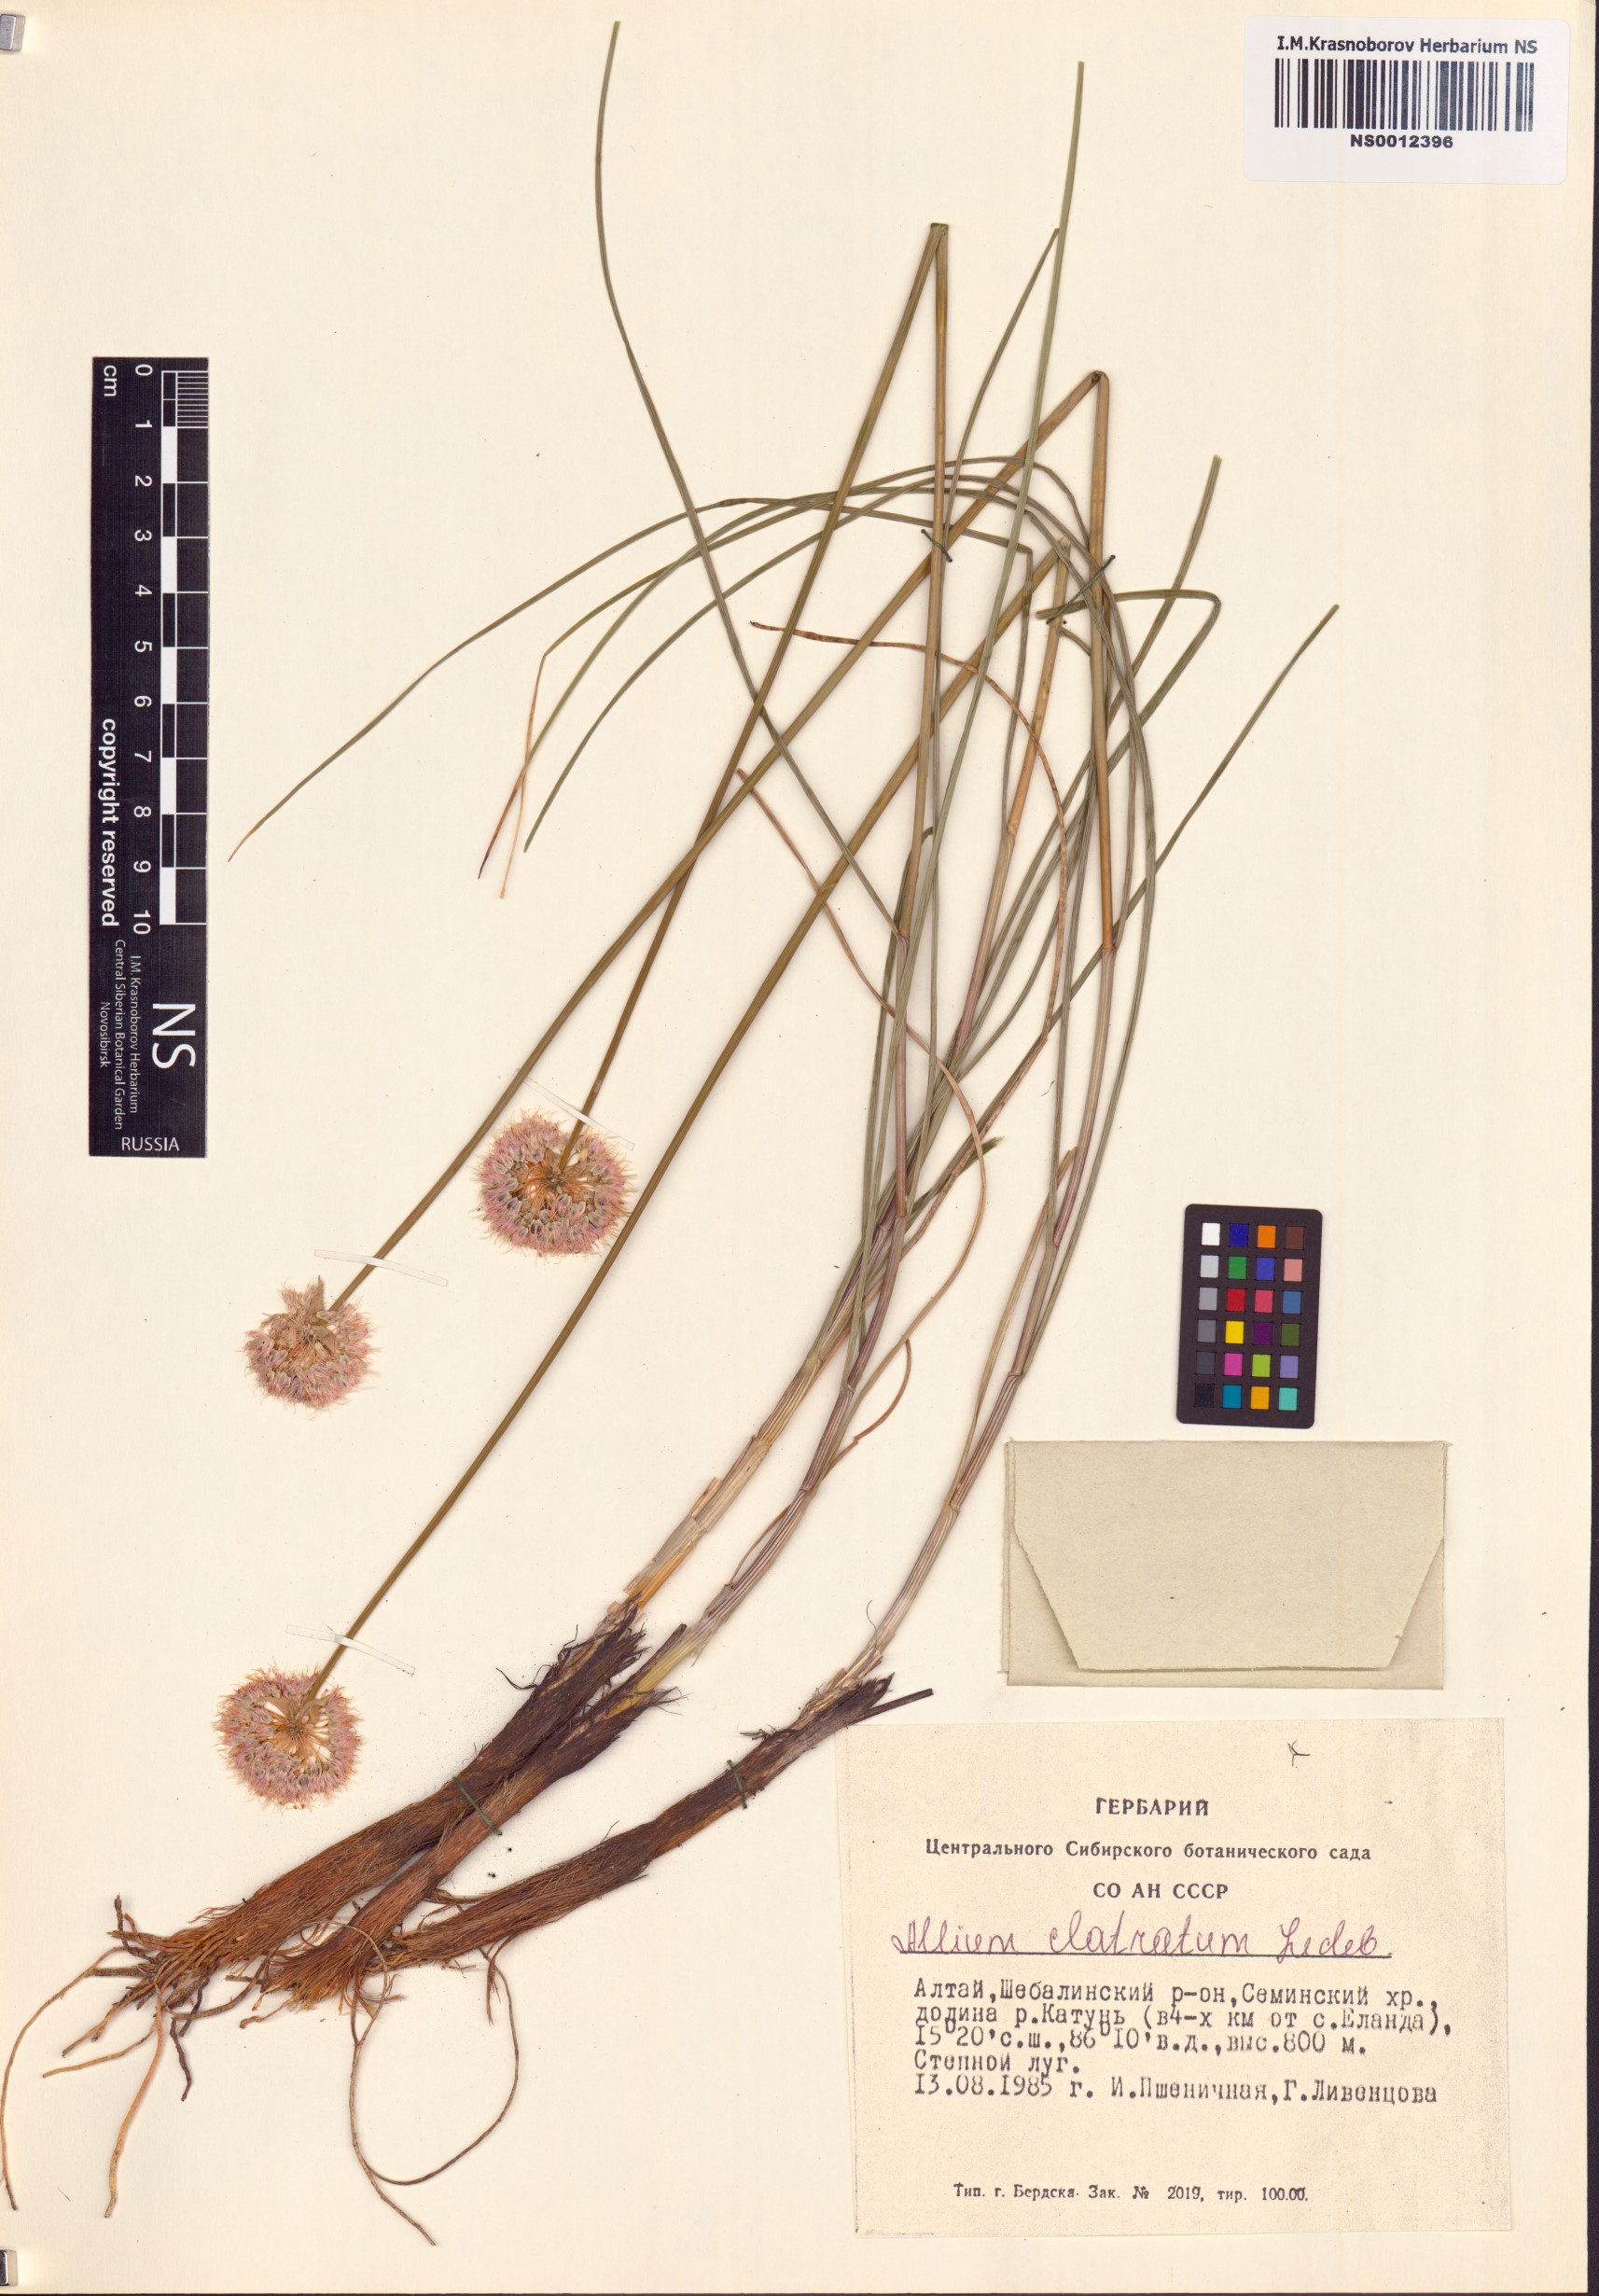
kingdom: Plantae
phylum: Tracheophyta
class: Liliopsida
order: Asparagales
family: Amaryllidaceae
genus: Allium
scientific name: Allium clathratum
